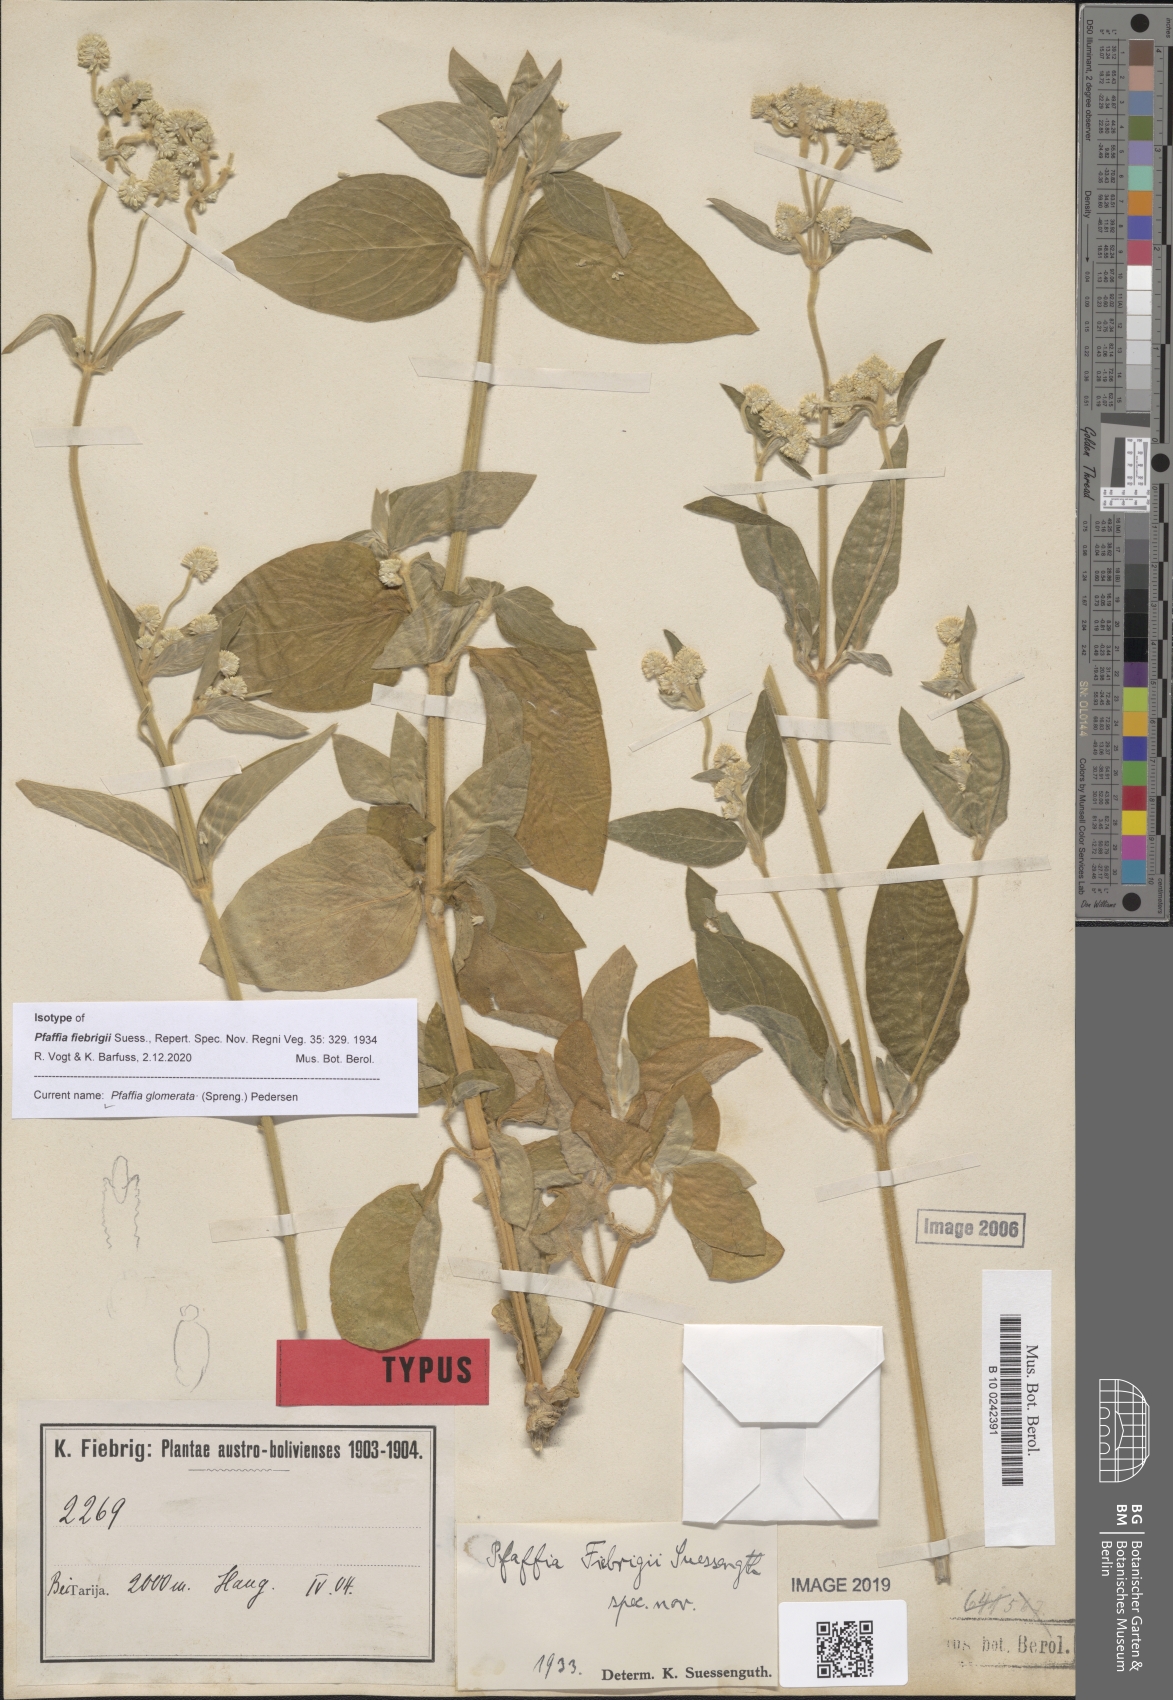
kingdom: Plantae
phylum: Tracheophyta
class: Magnoliopsida
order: Caryophyllales
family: Amaranthaceae
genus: Pfaffia
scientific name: Pfaffia glomerata
